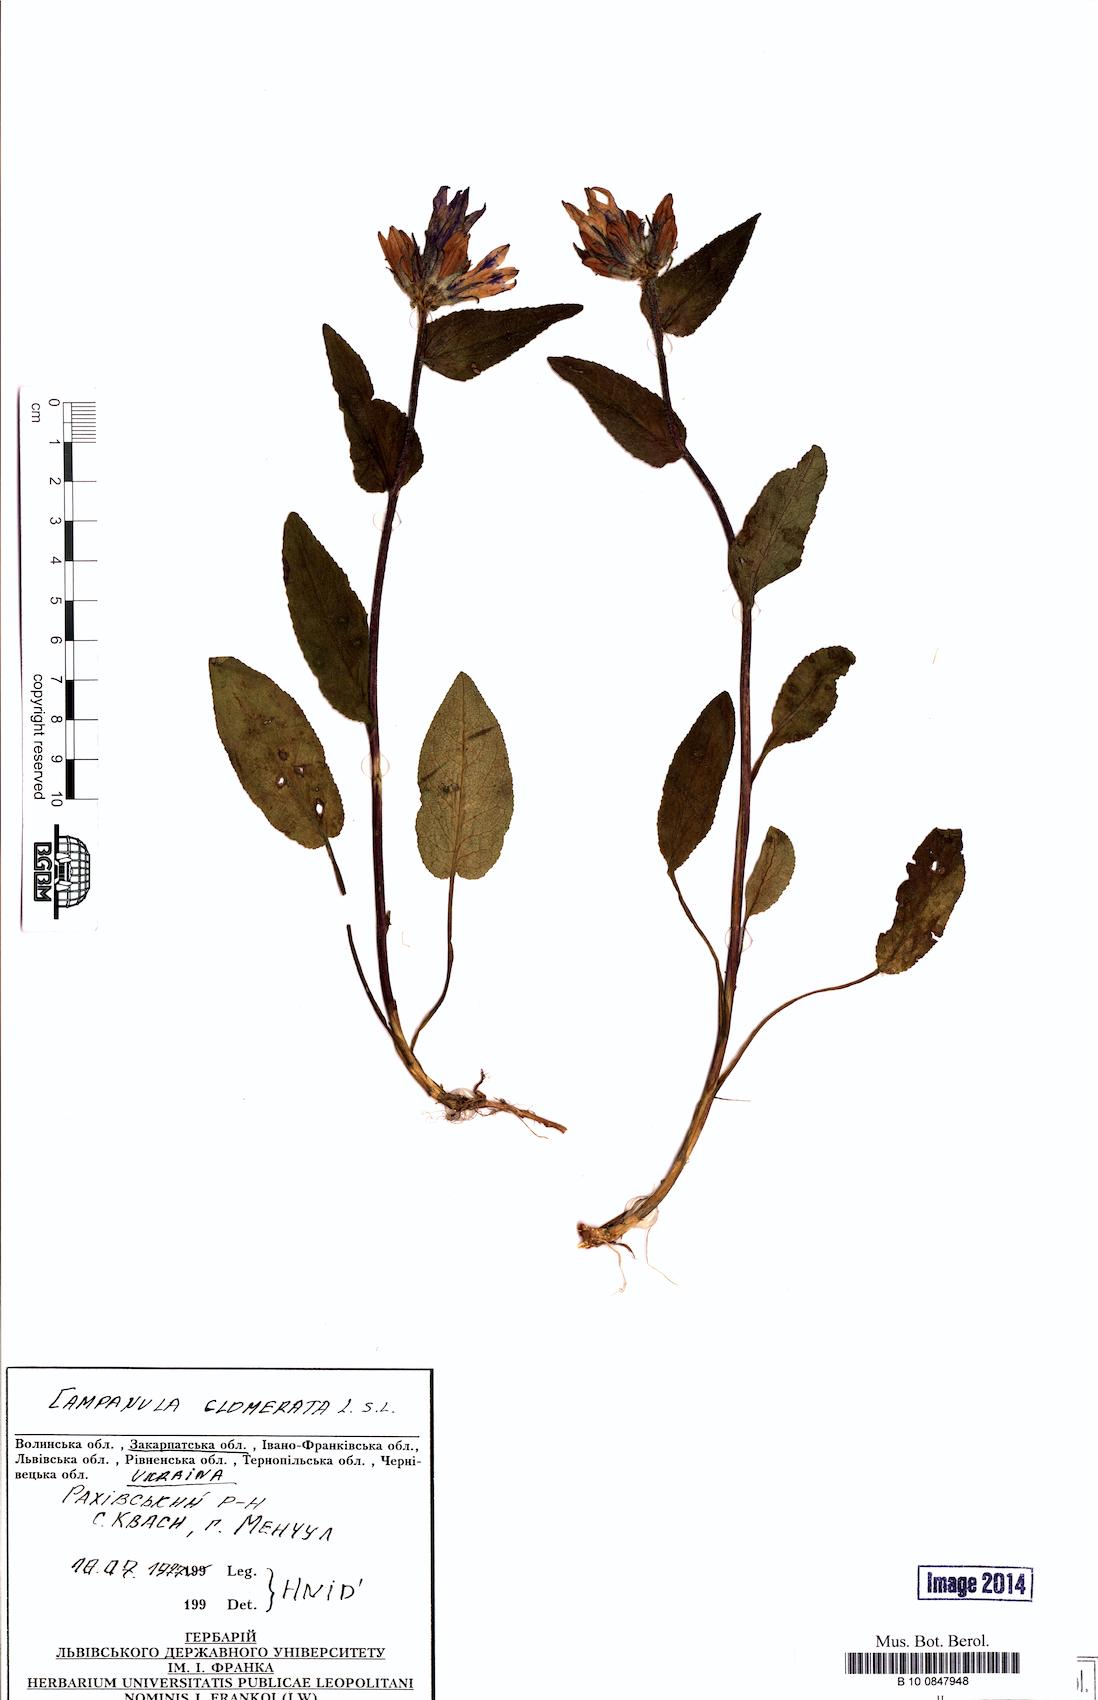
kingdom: Plantae
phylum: Tracheophyta
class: Magnoliopsida
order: Asterales
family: Campanulaceae
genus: Campanula
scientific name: Campanula glomerata
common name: Clustered bellflower
